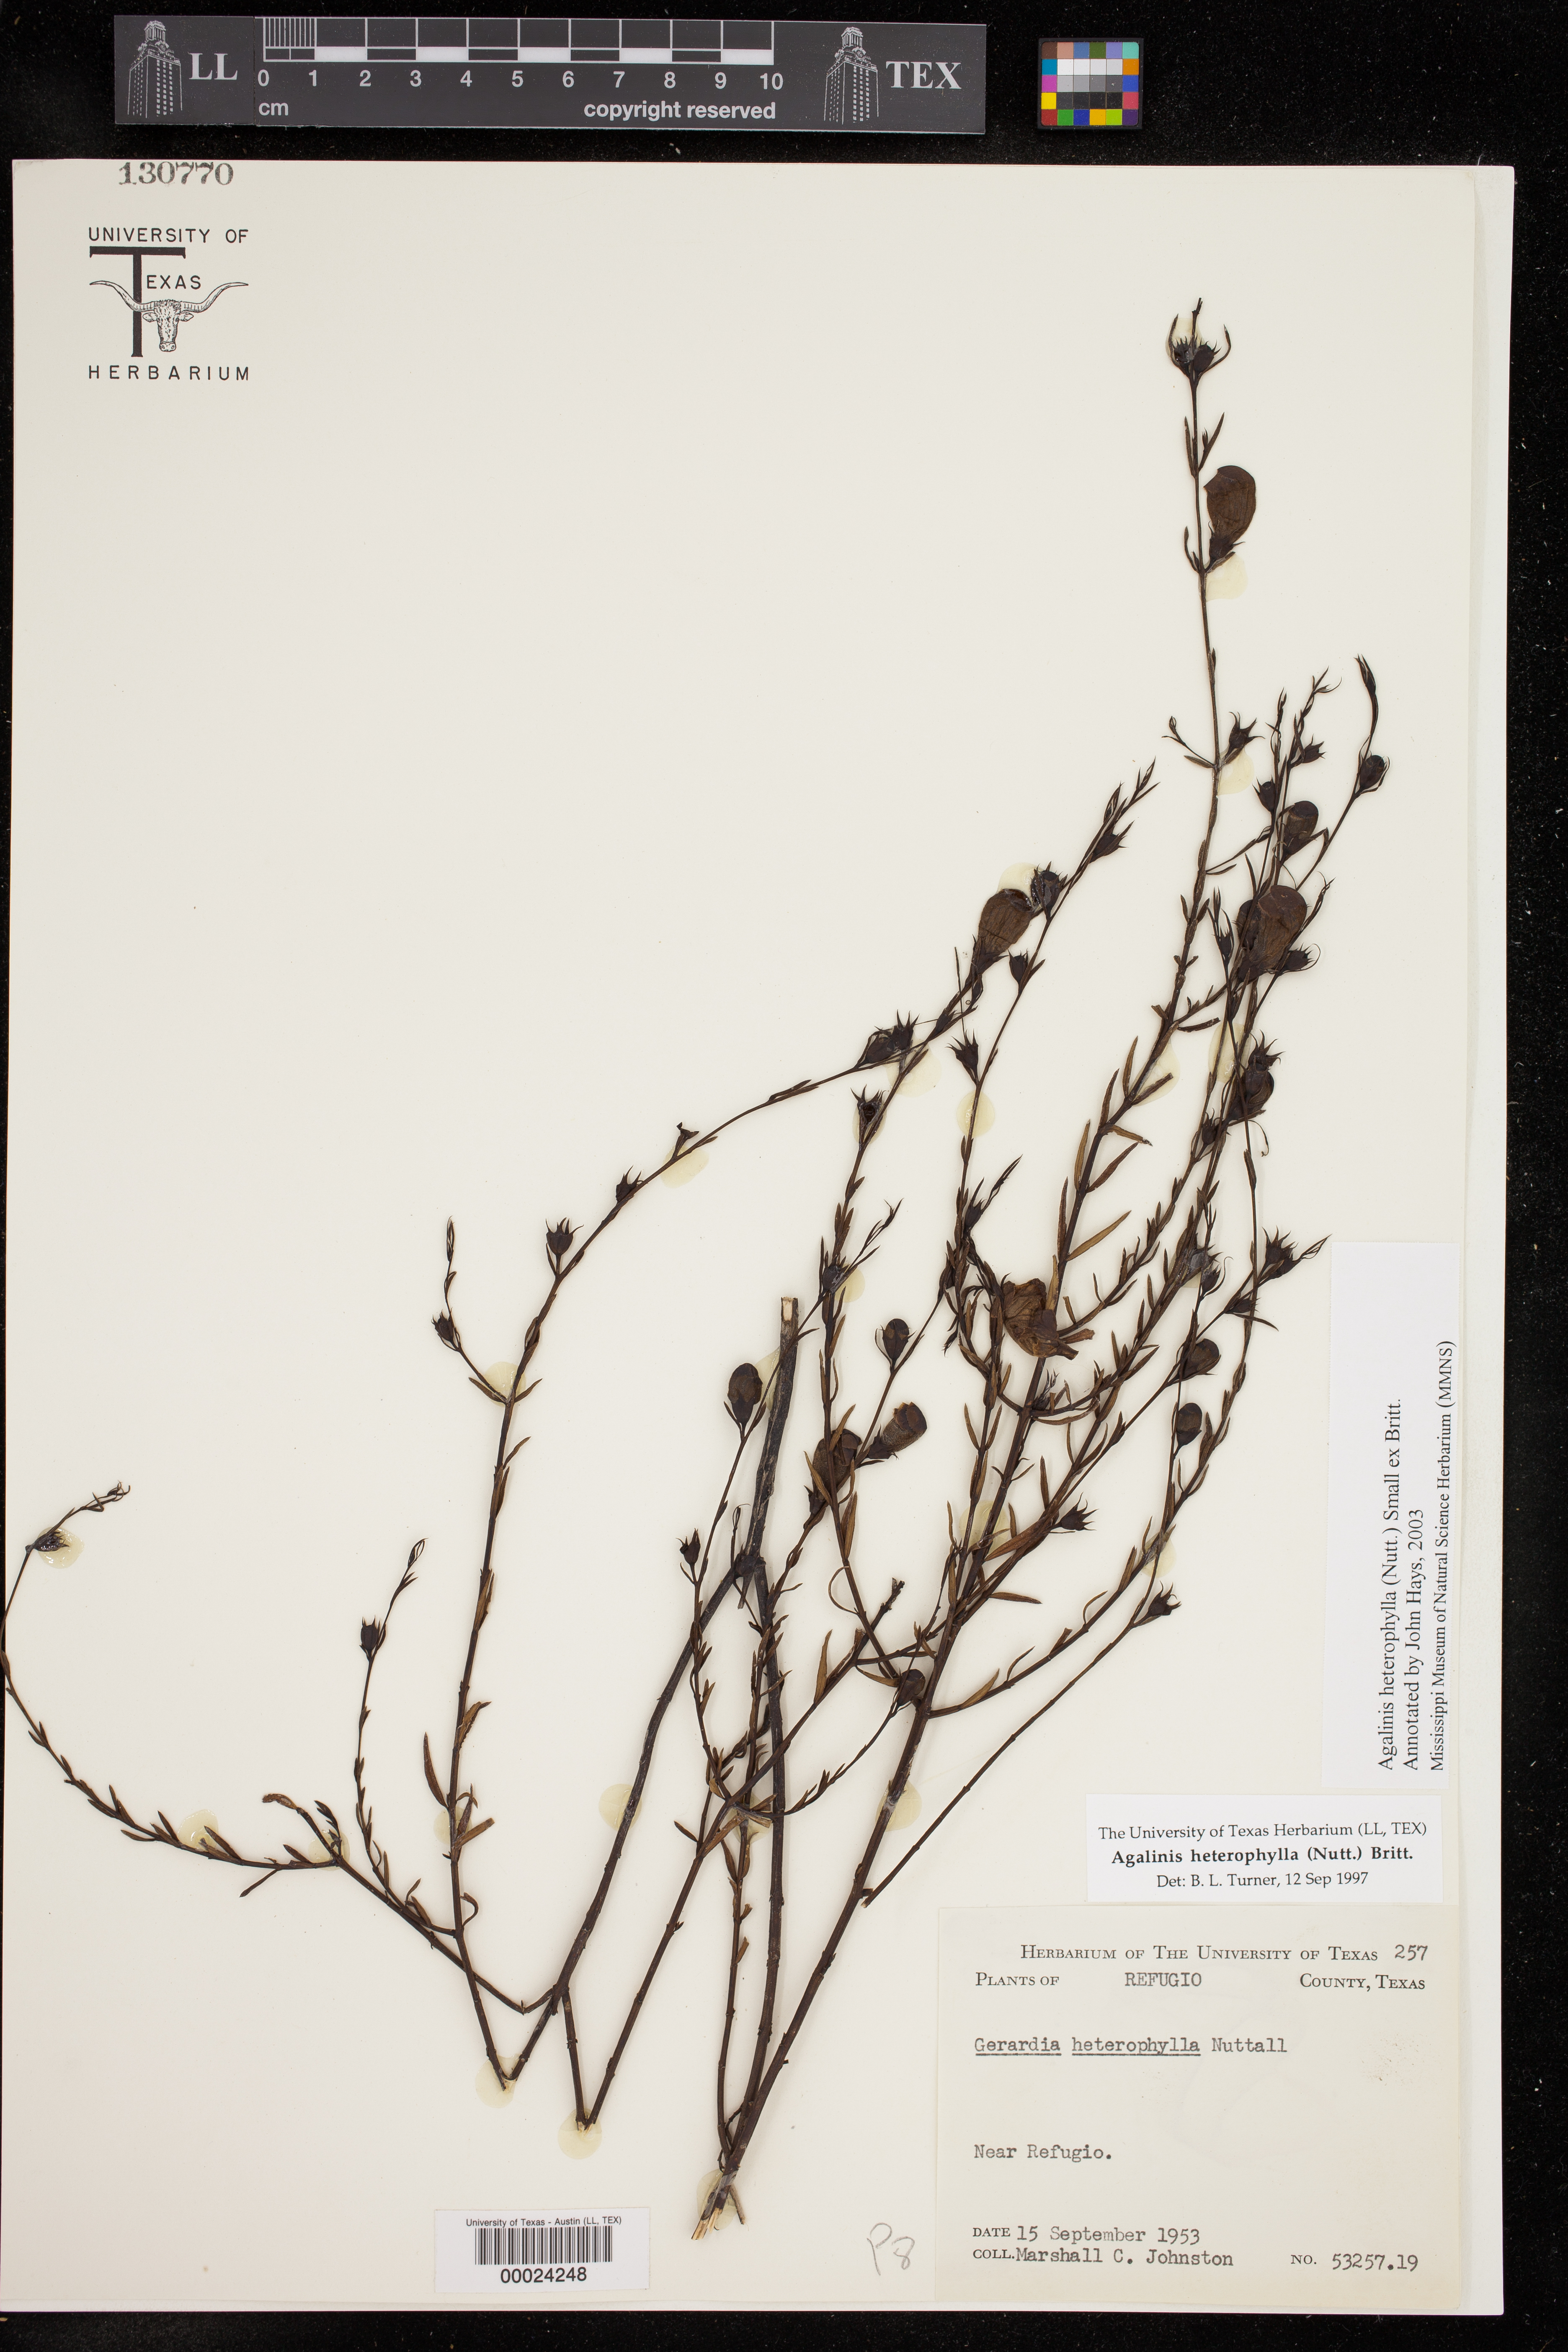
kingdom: Plantae
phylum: Tracheophyta
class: Magnoliopsida
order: Lamiales
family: Orobanchaceae
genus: Agalinis
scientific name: Agalinis heterophylla
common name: Prairie agalinis
